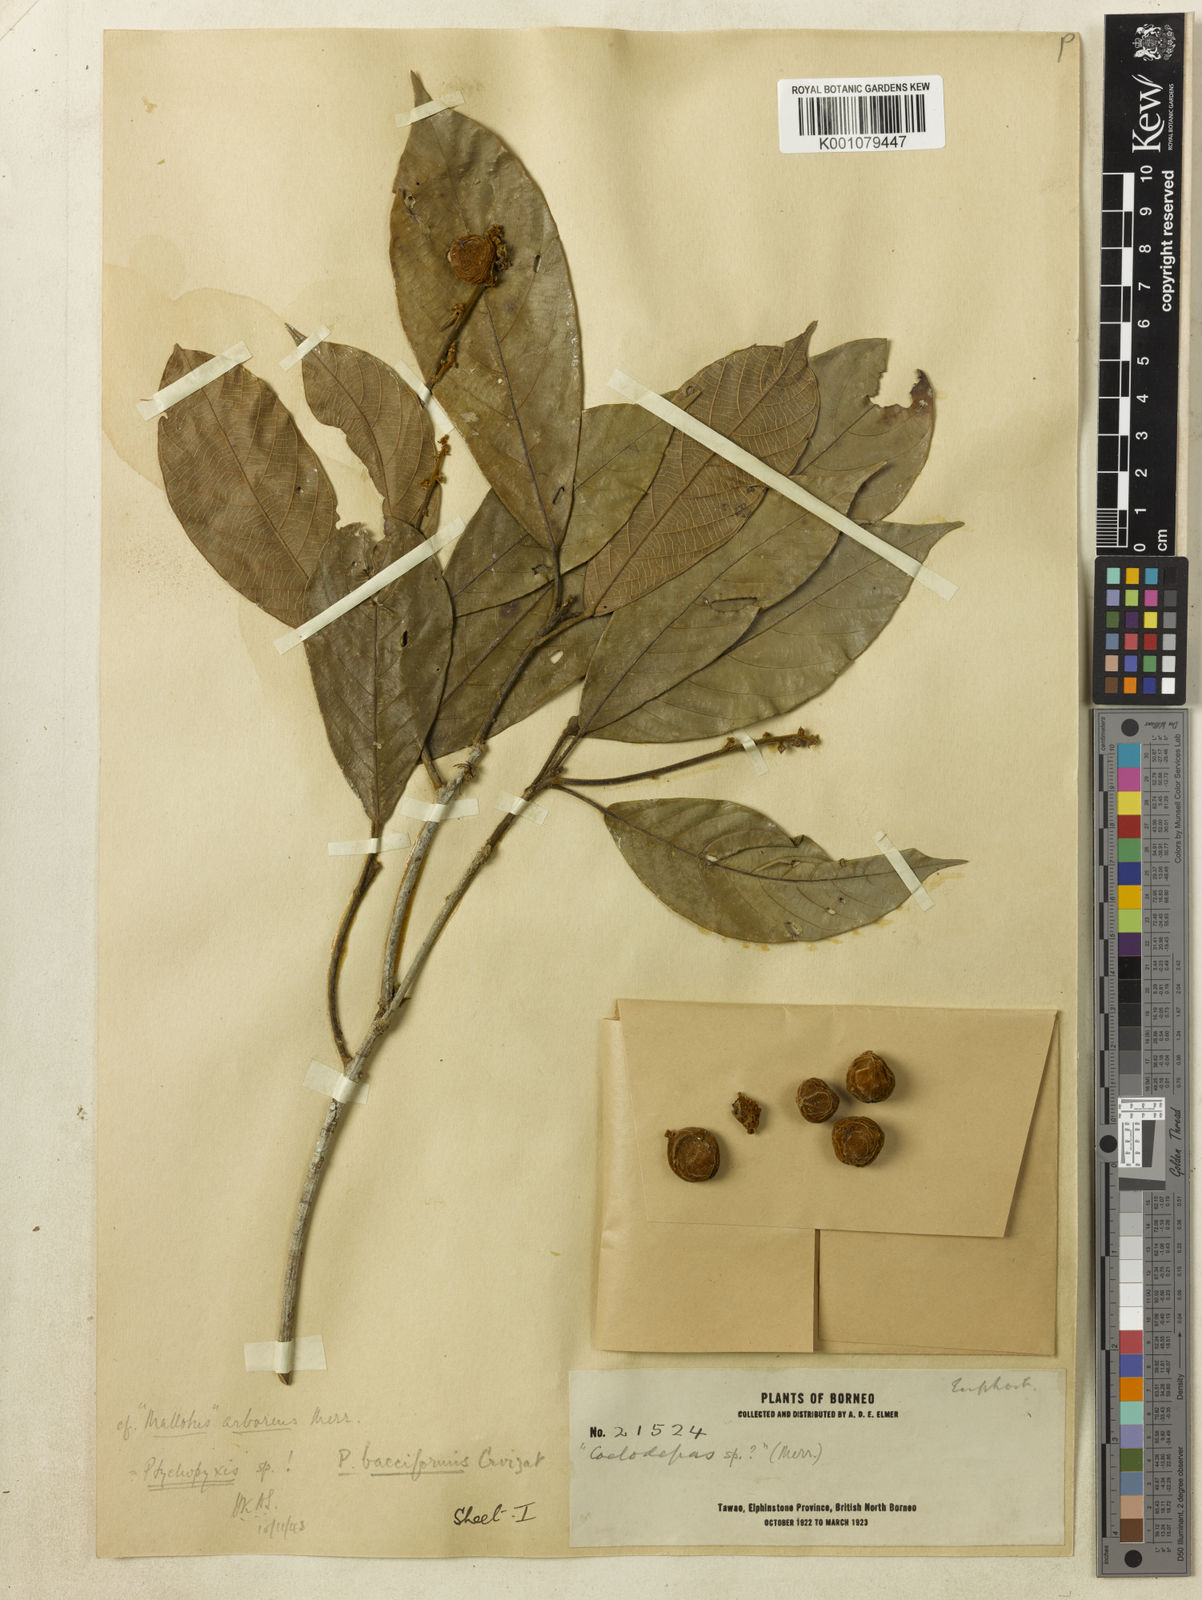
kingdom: Plantae
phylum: Tracheophyta
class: Magnoliopsida
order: Malpighiales
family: Euphorbiaceae
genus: Ptychopyxis
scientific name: Ptychopyxis bacciformis
